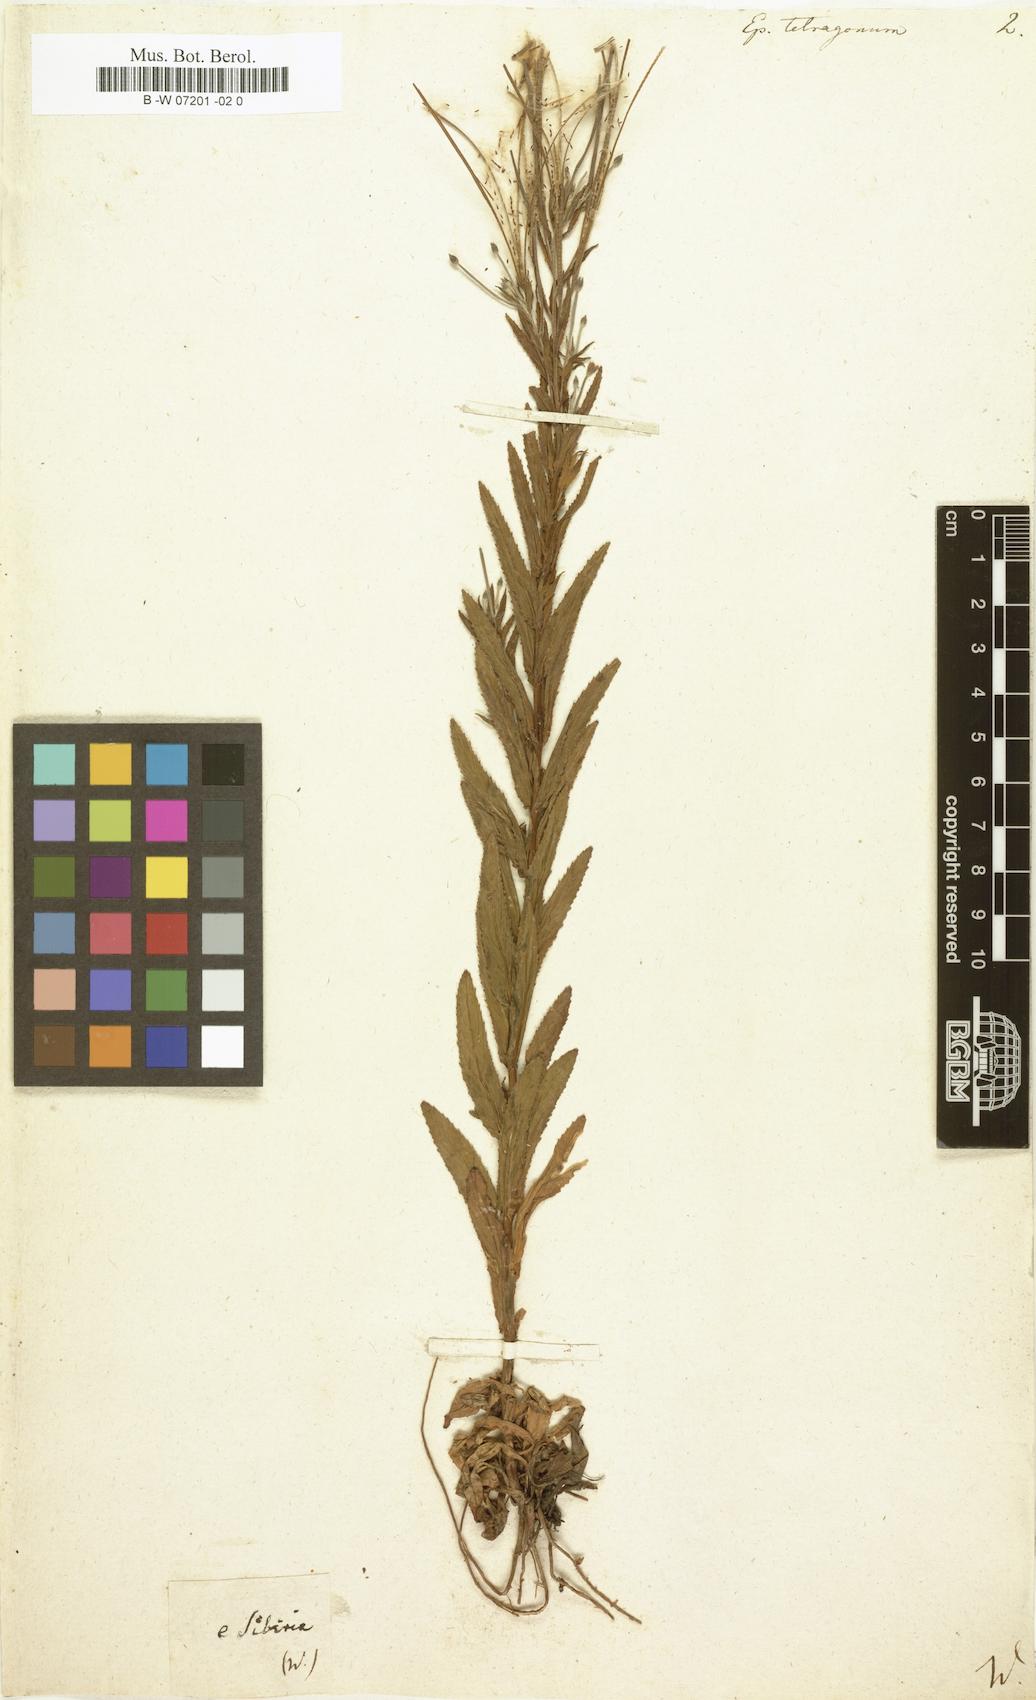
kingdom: Plantae
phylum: Tracheophyta
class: Magnoliopsida
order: Myrtales
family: Onagraceae
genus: Epilobium
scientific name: Epilobium tetragonum
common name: Square-stemmed willowherb
